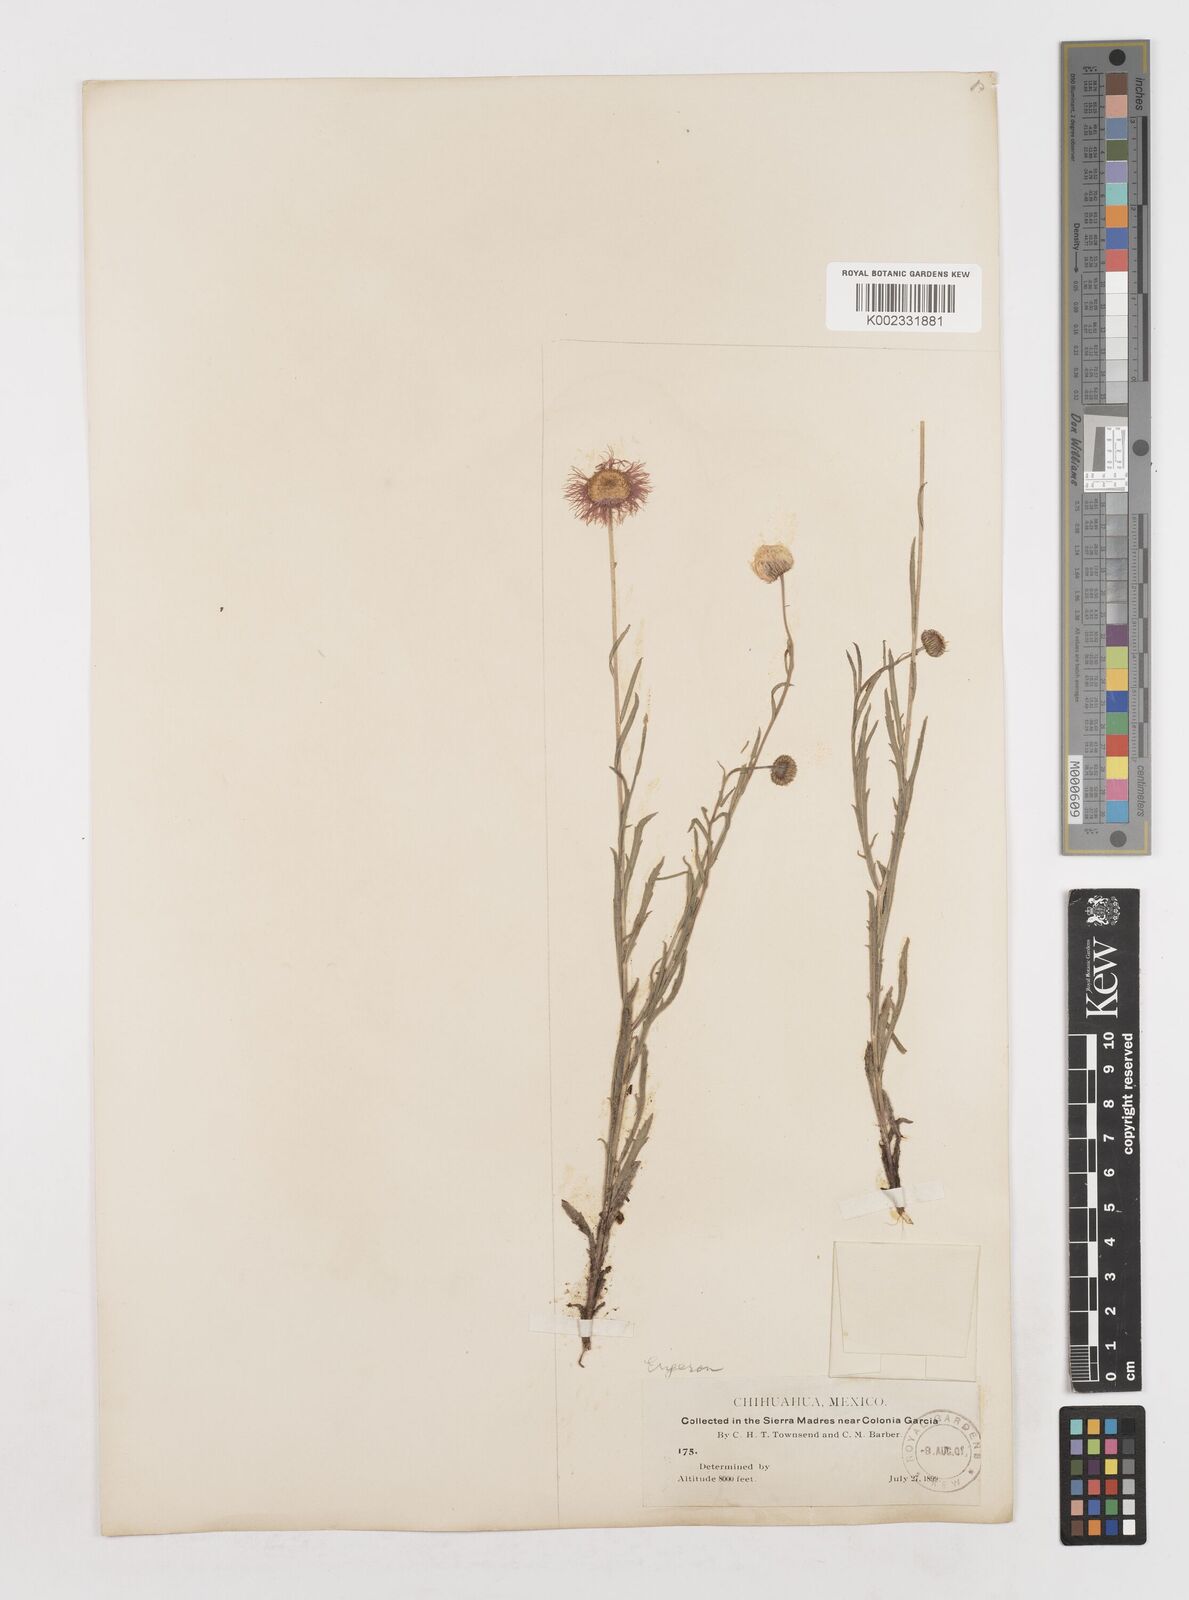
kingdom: Plantae
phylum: Tracheophyta
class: Magnoliopsida
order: Asterales
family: Asteraceae
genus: Erigeron
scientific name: Erigeron
